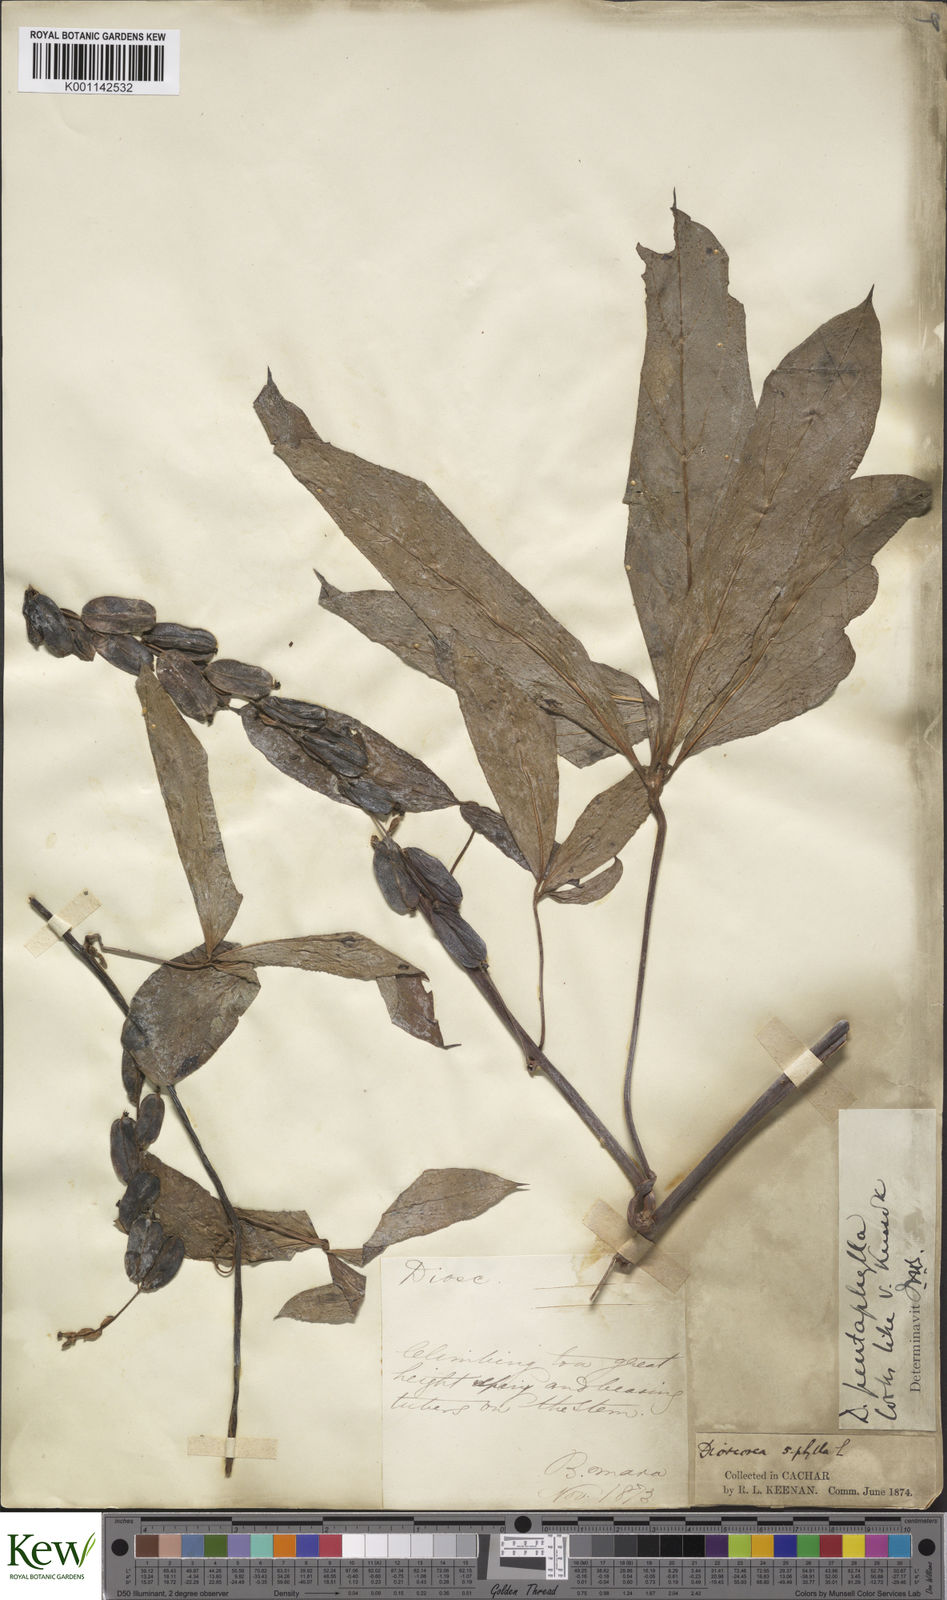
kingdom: Plantae
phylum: Tracheophyta
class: Liliopsida
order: Dioscoreales
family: Dioscoreaceae
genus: Dioscorea
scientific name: Dioscorea pentaphylla
